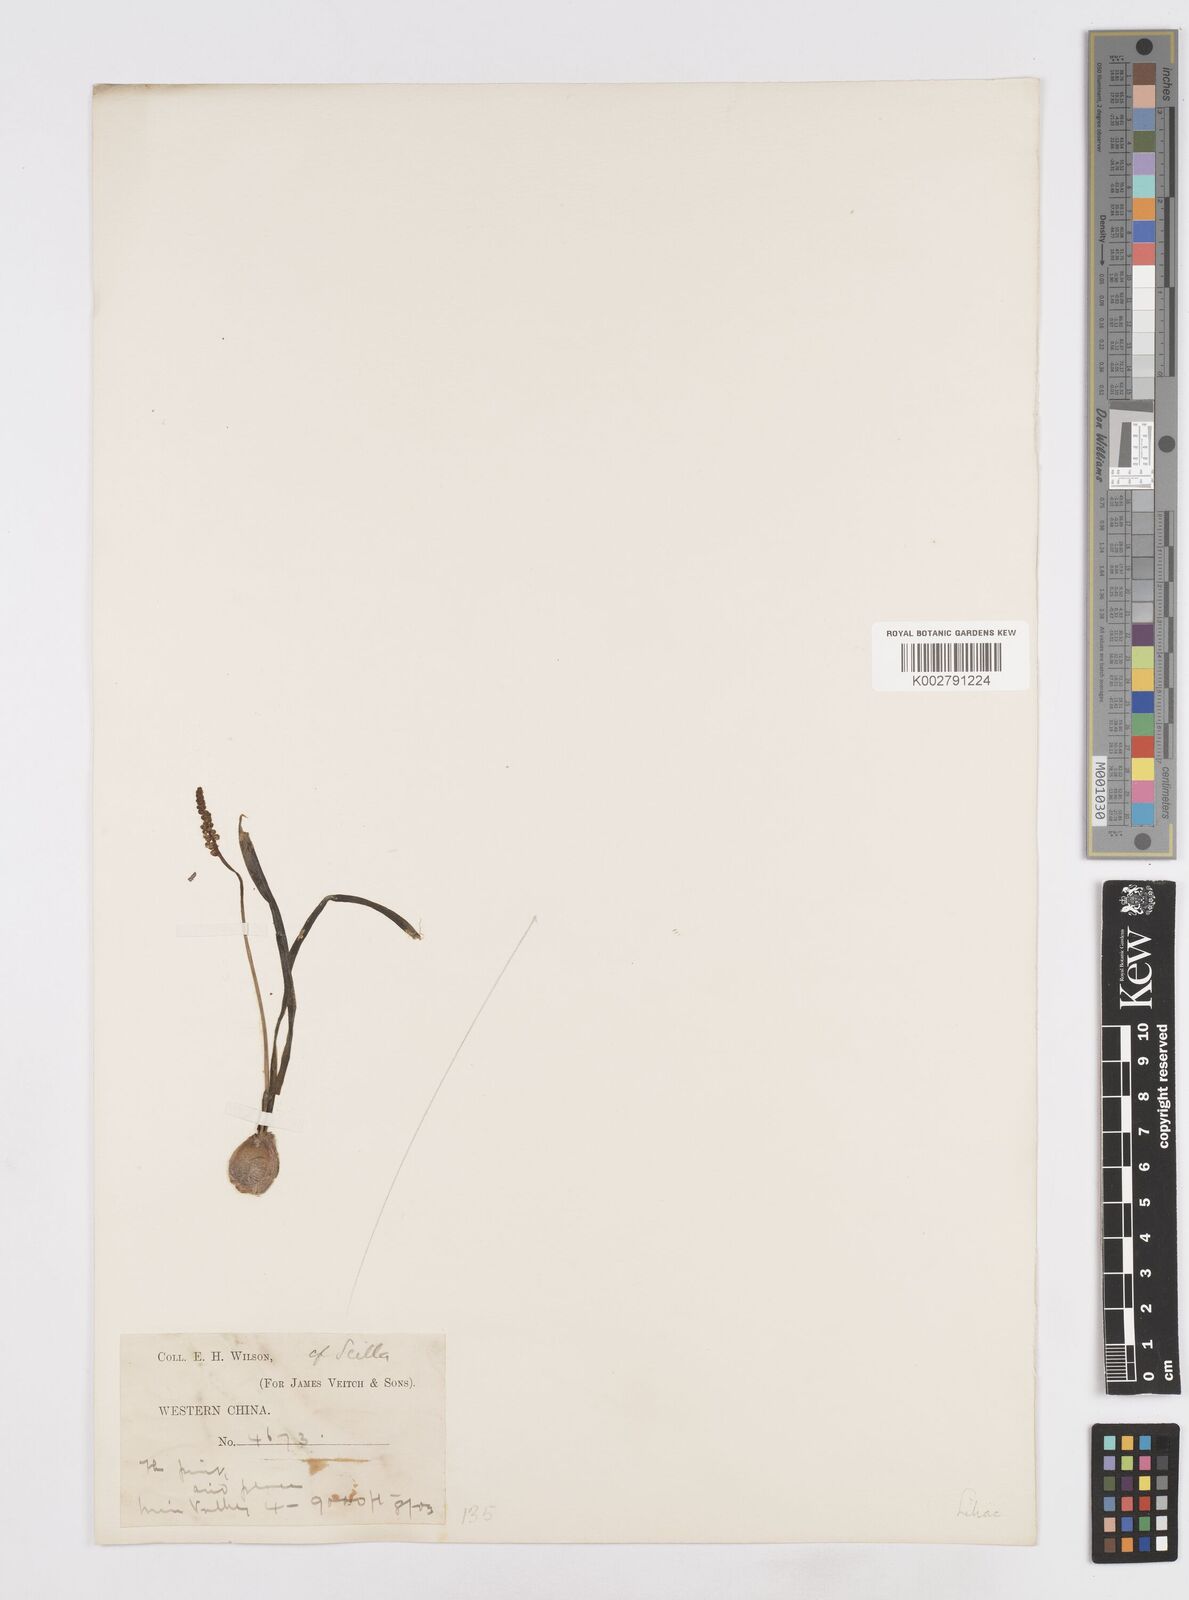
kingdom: Plantae
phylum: Tracheophyta
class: Liliopsida
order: Liliales
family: Melanthiaceae
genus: Helonias
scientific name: Helonias breviscapa
